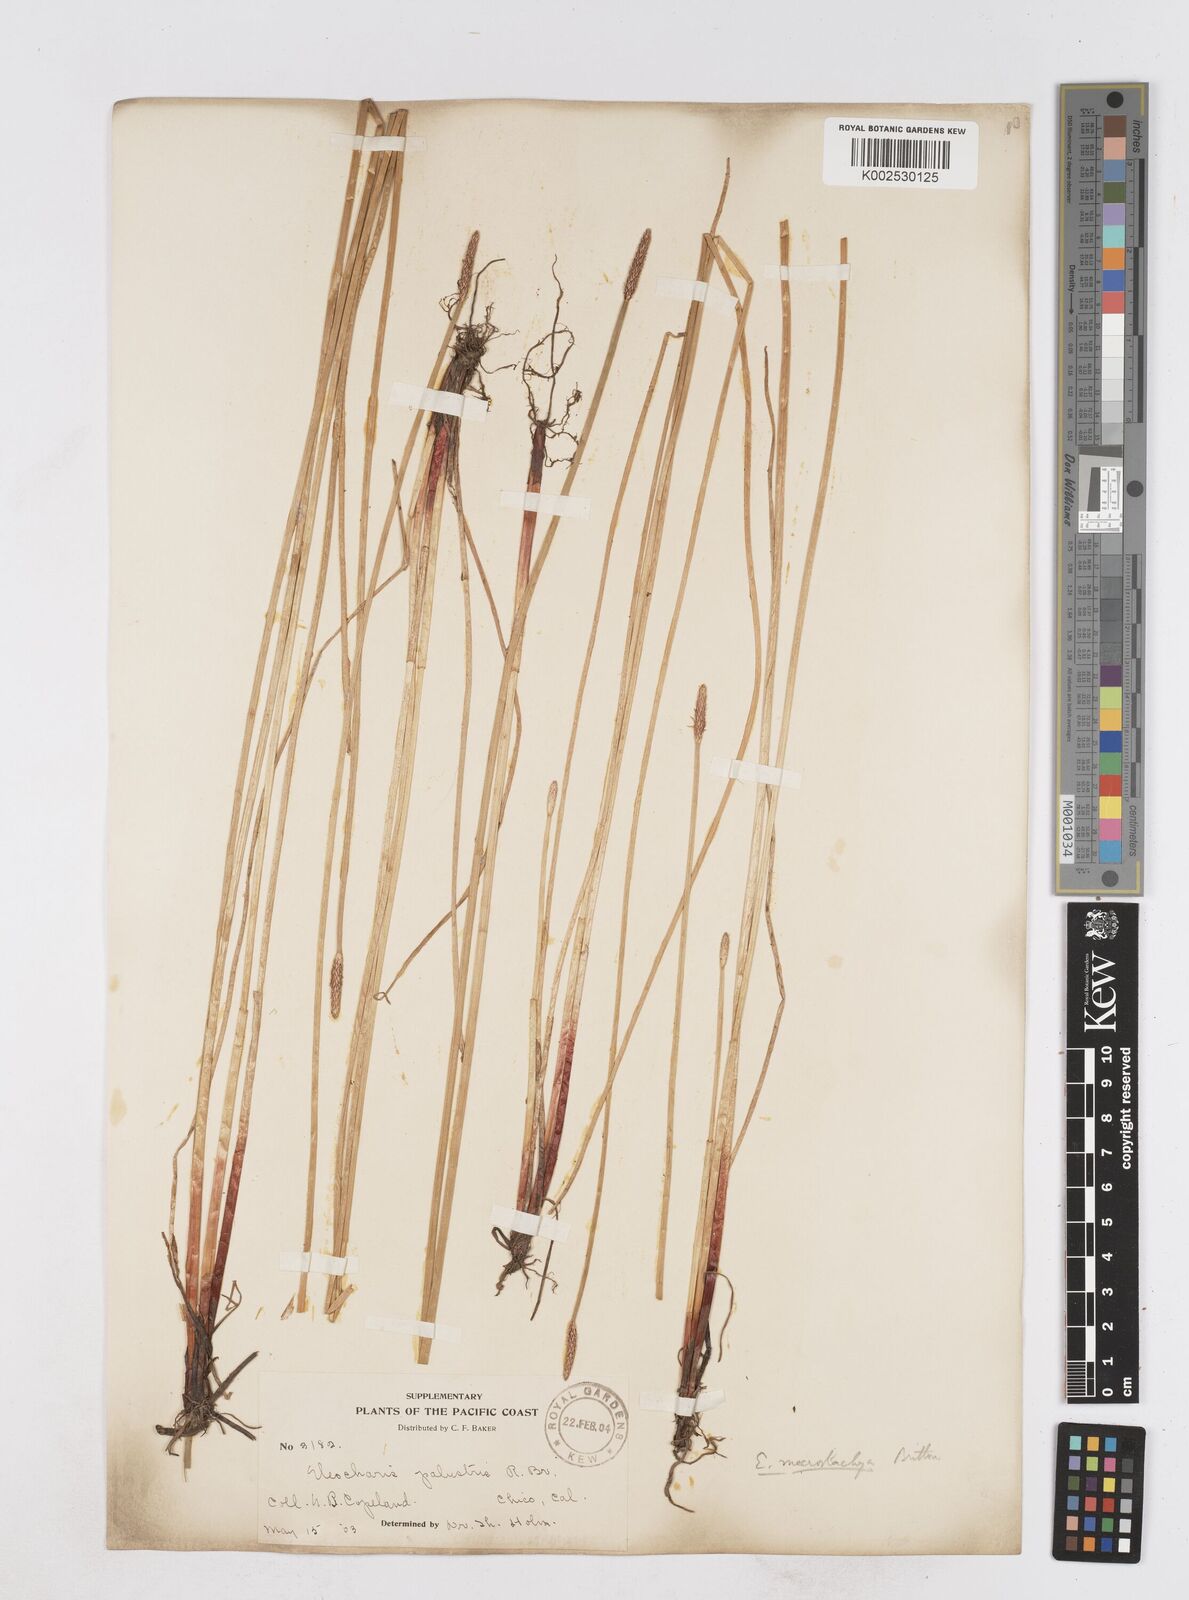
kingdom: Plantae
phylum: Tracheophyta
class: Liliopsida
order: Poales
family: Cyperaceae
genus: Eleocharis
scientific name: Eleocharis macrostachya
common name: Pale spikerush
